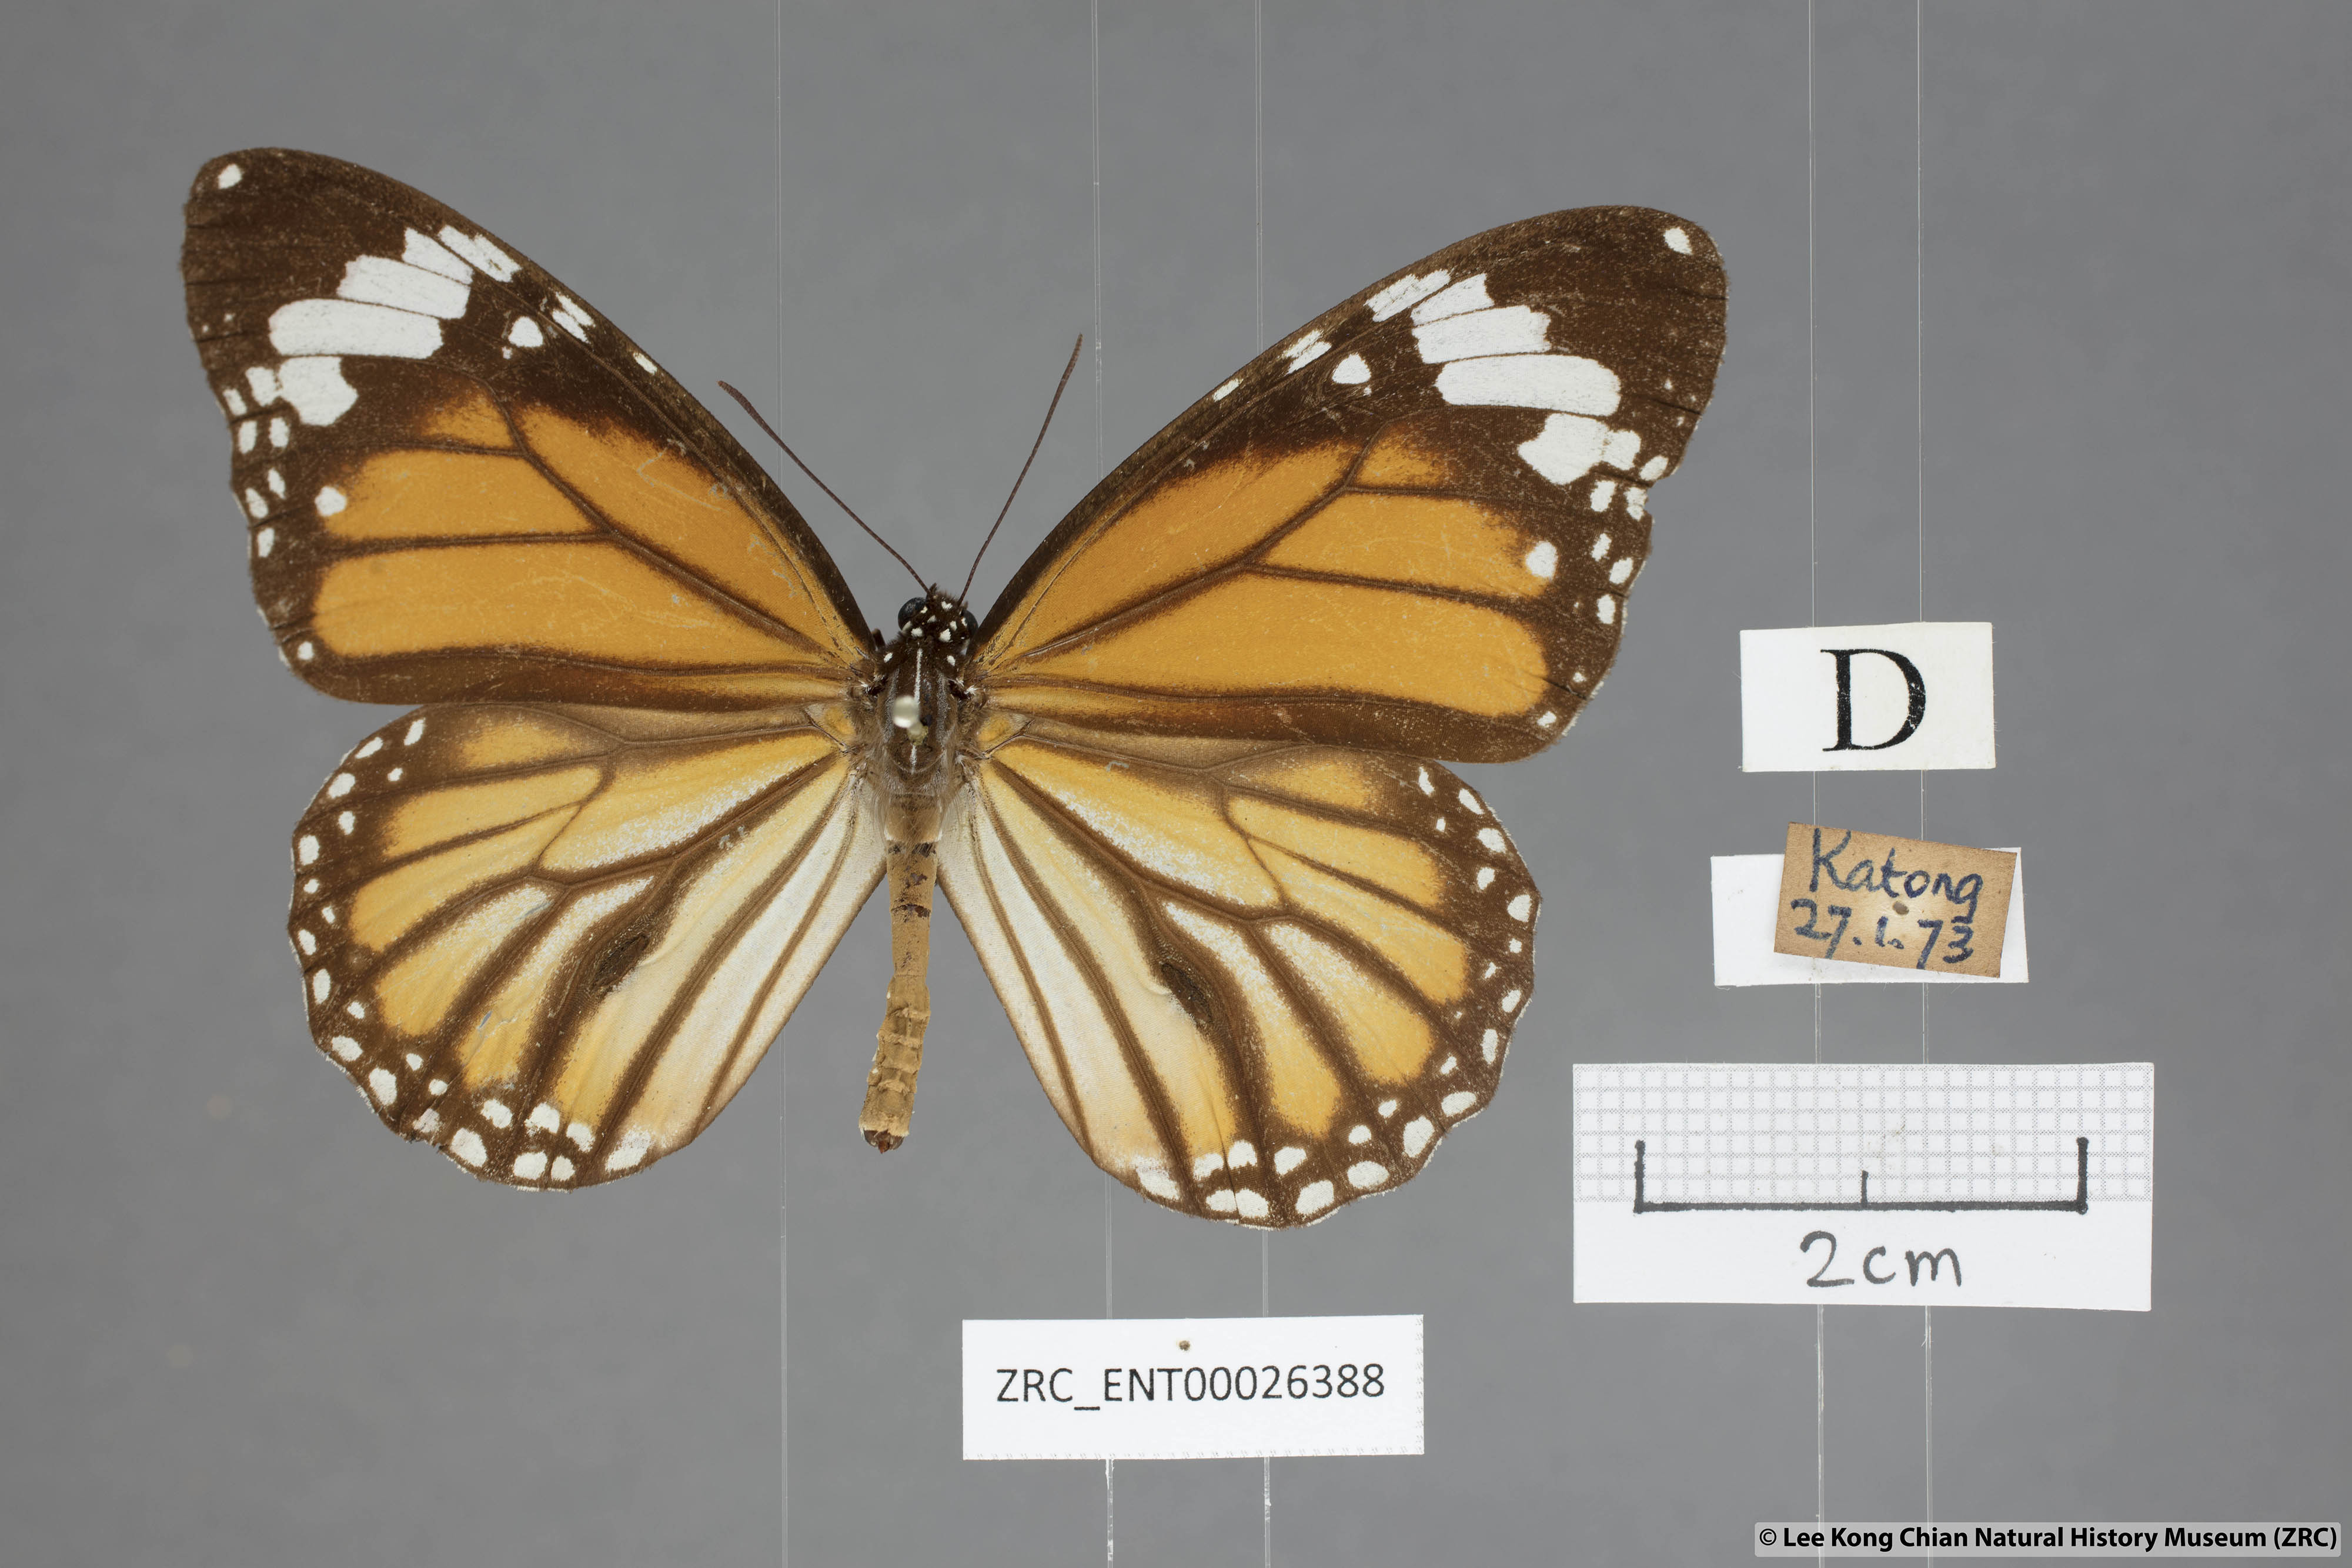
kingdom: Animalia
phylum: Arthropoda
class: Insecta
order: Lepidoptera
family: Nymphalidae
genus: Danaus
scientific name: Danaus genutia
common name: Common tiger butterfly
